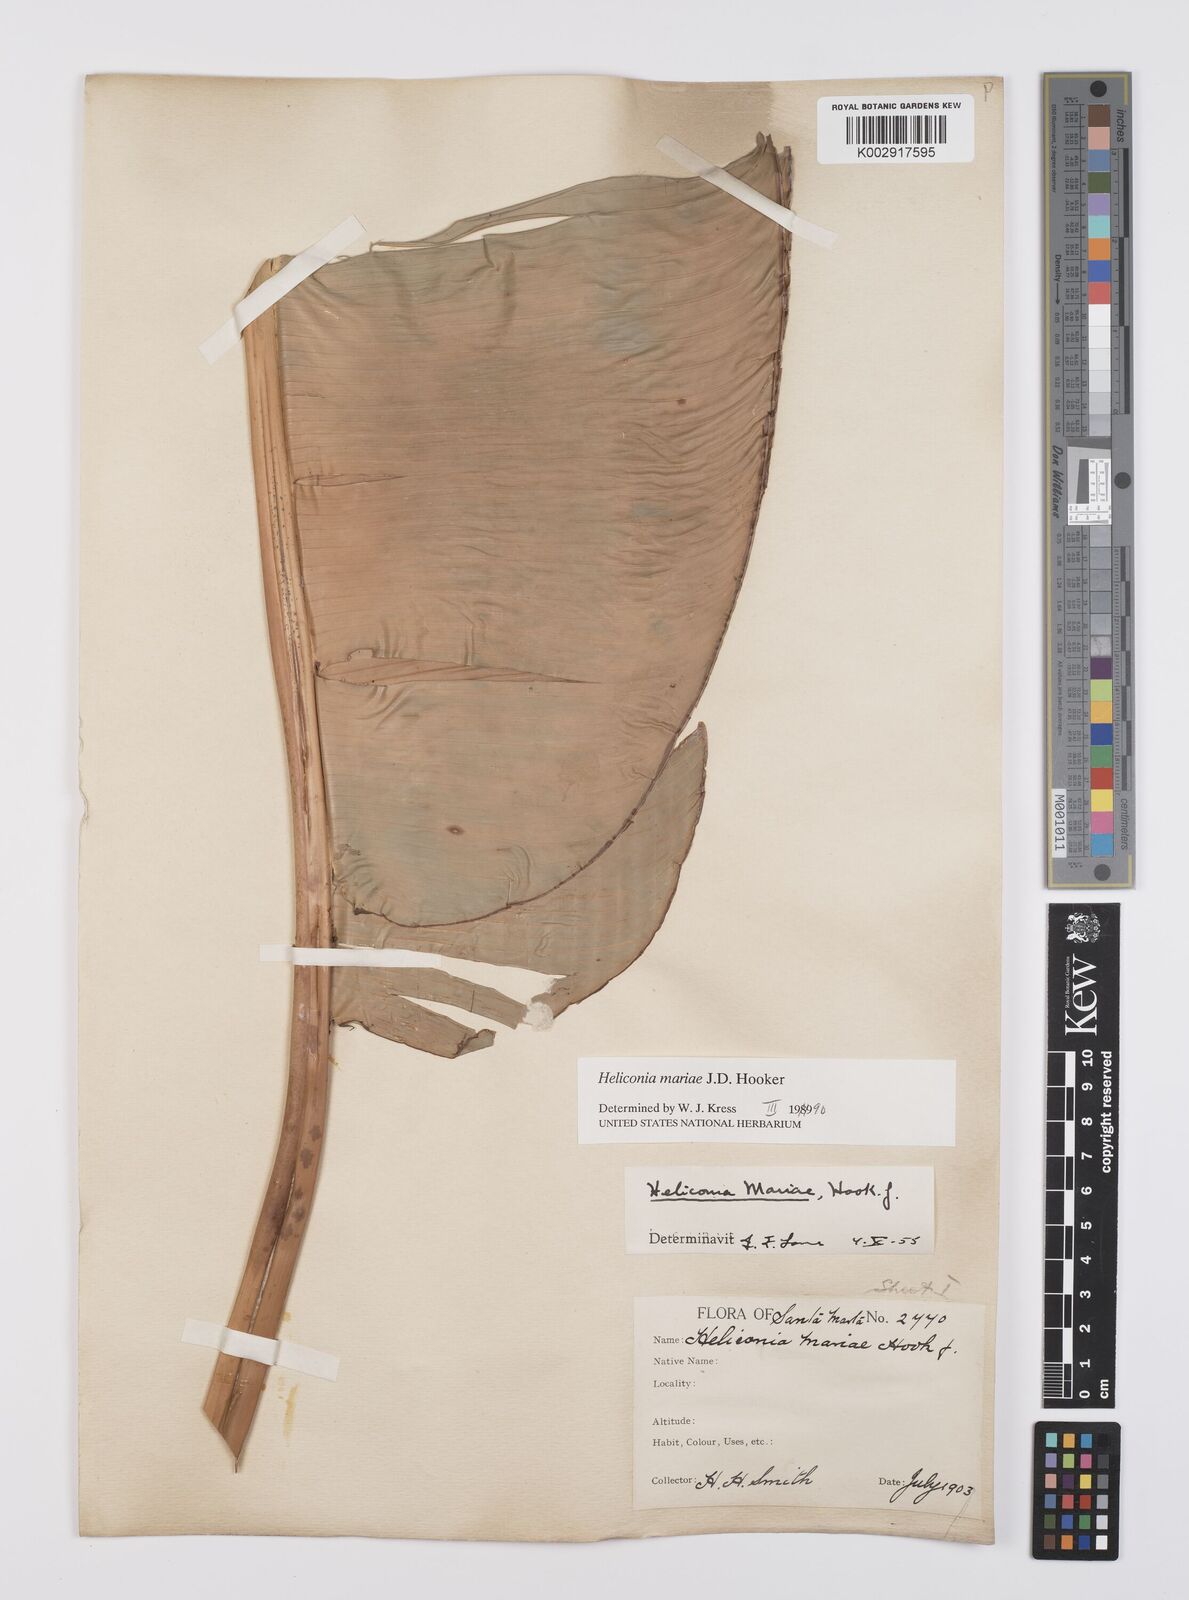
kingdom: Plantae
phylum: Tracheophyta
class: Liliopsida
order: Zingiberales
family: Heliconiaceae
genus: Heliconia
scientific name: Heliconia mariae
